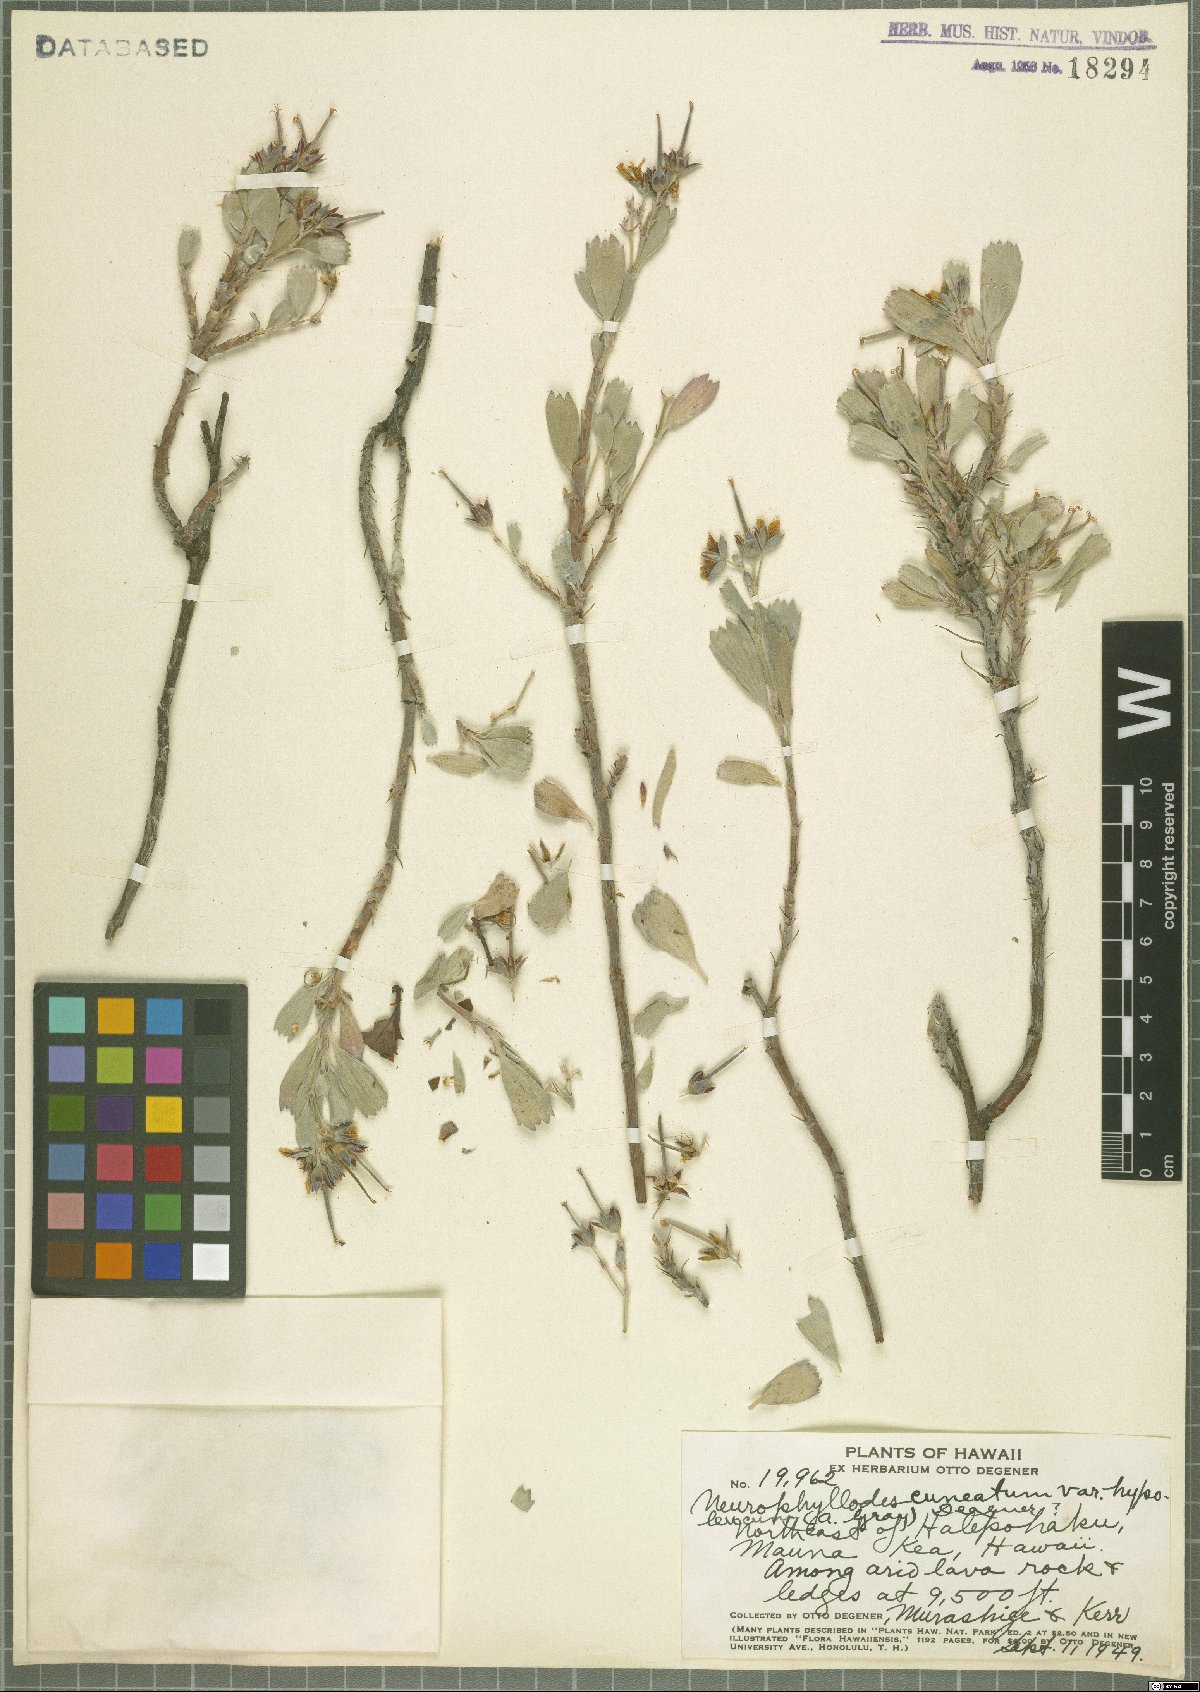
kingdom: Plantae
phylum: Tracheophyta
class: Magnoliopsida
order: Geraniales
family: Geraniaceae
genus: Geranium
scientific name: Geranium cuneatum
